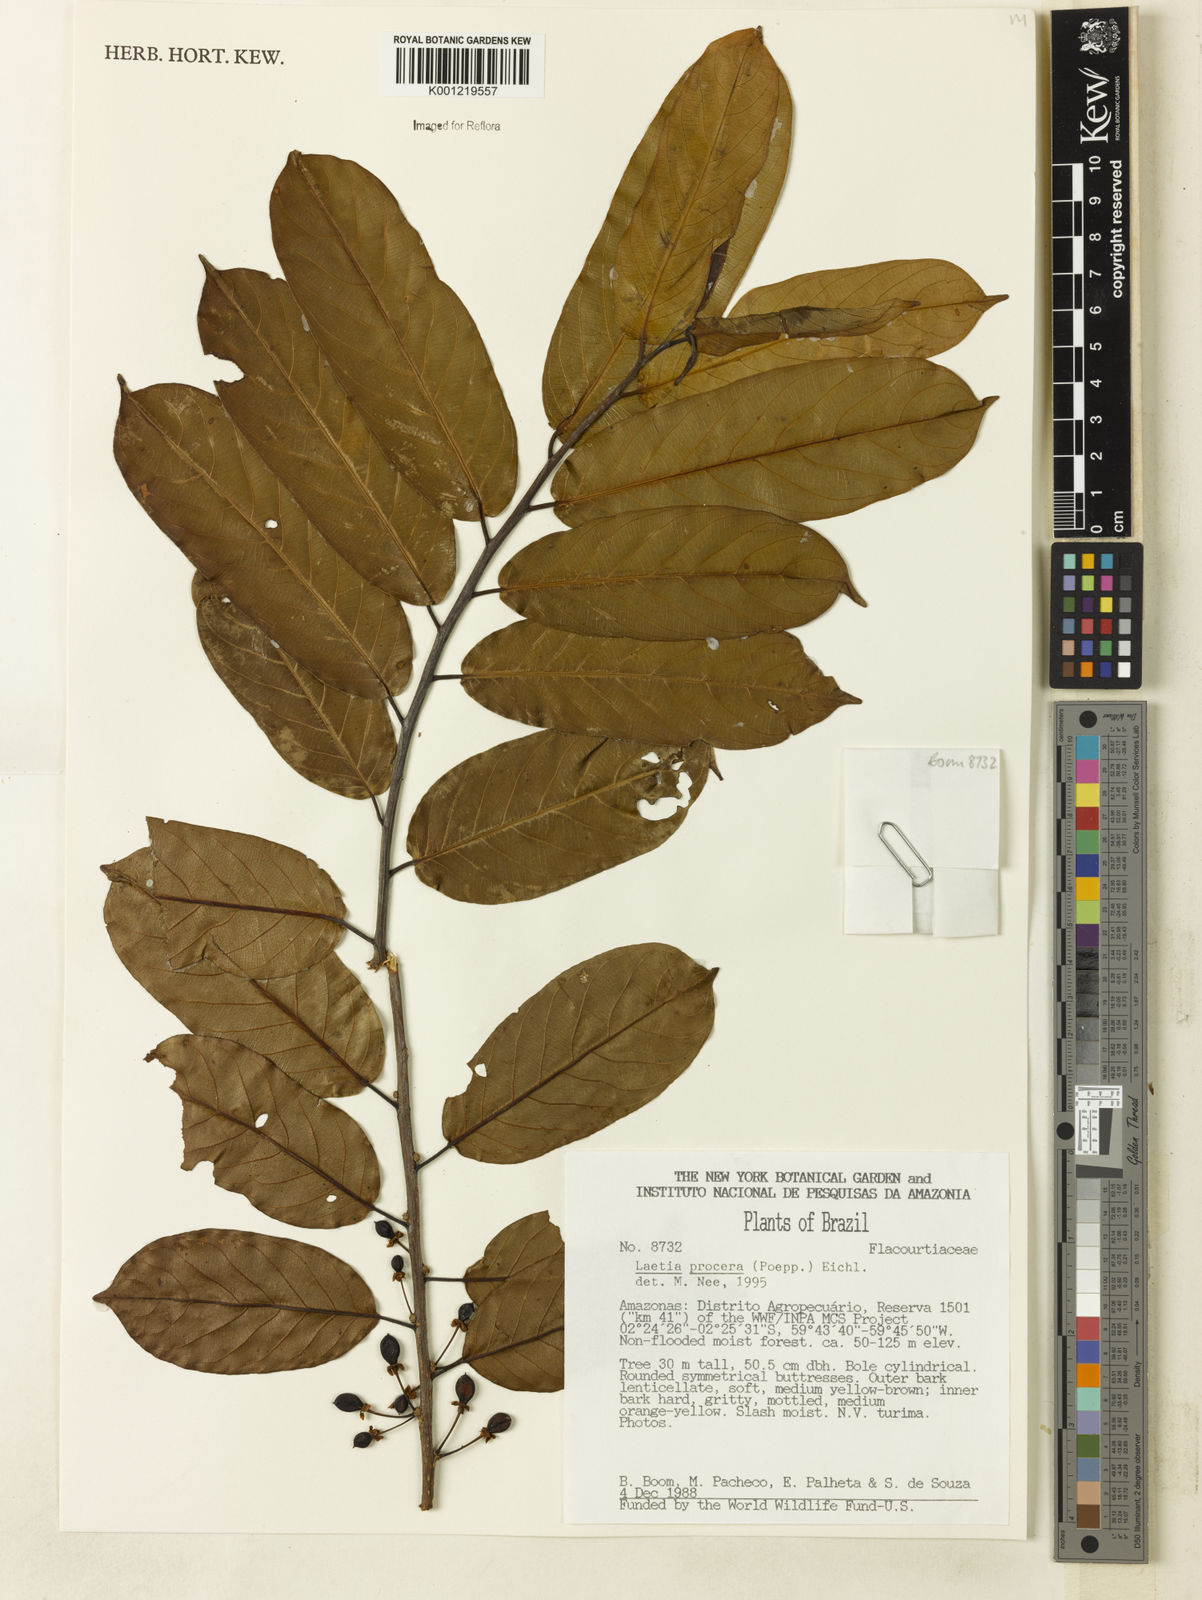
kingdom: Plantae
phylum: Tracheophyta
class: Magnoliopsida
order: Malpighiales
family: Salicaceae
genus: Casearia
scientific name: Casearia bicolor
